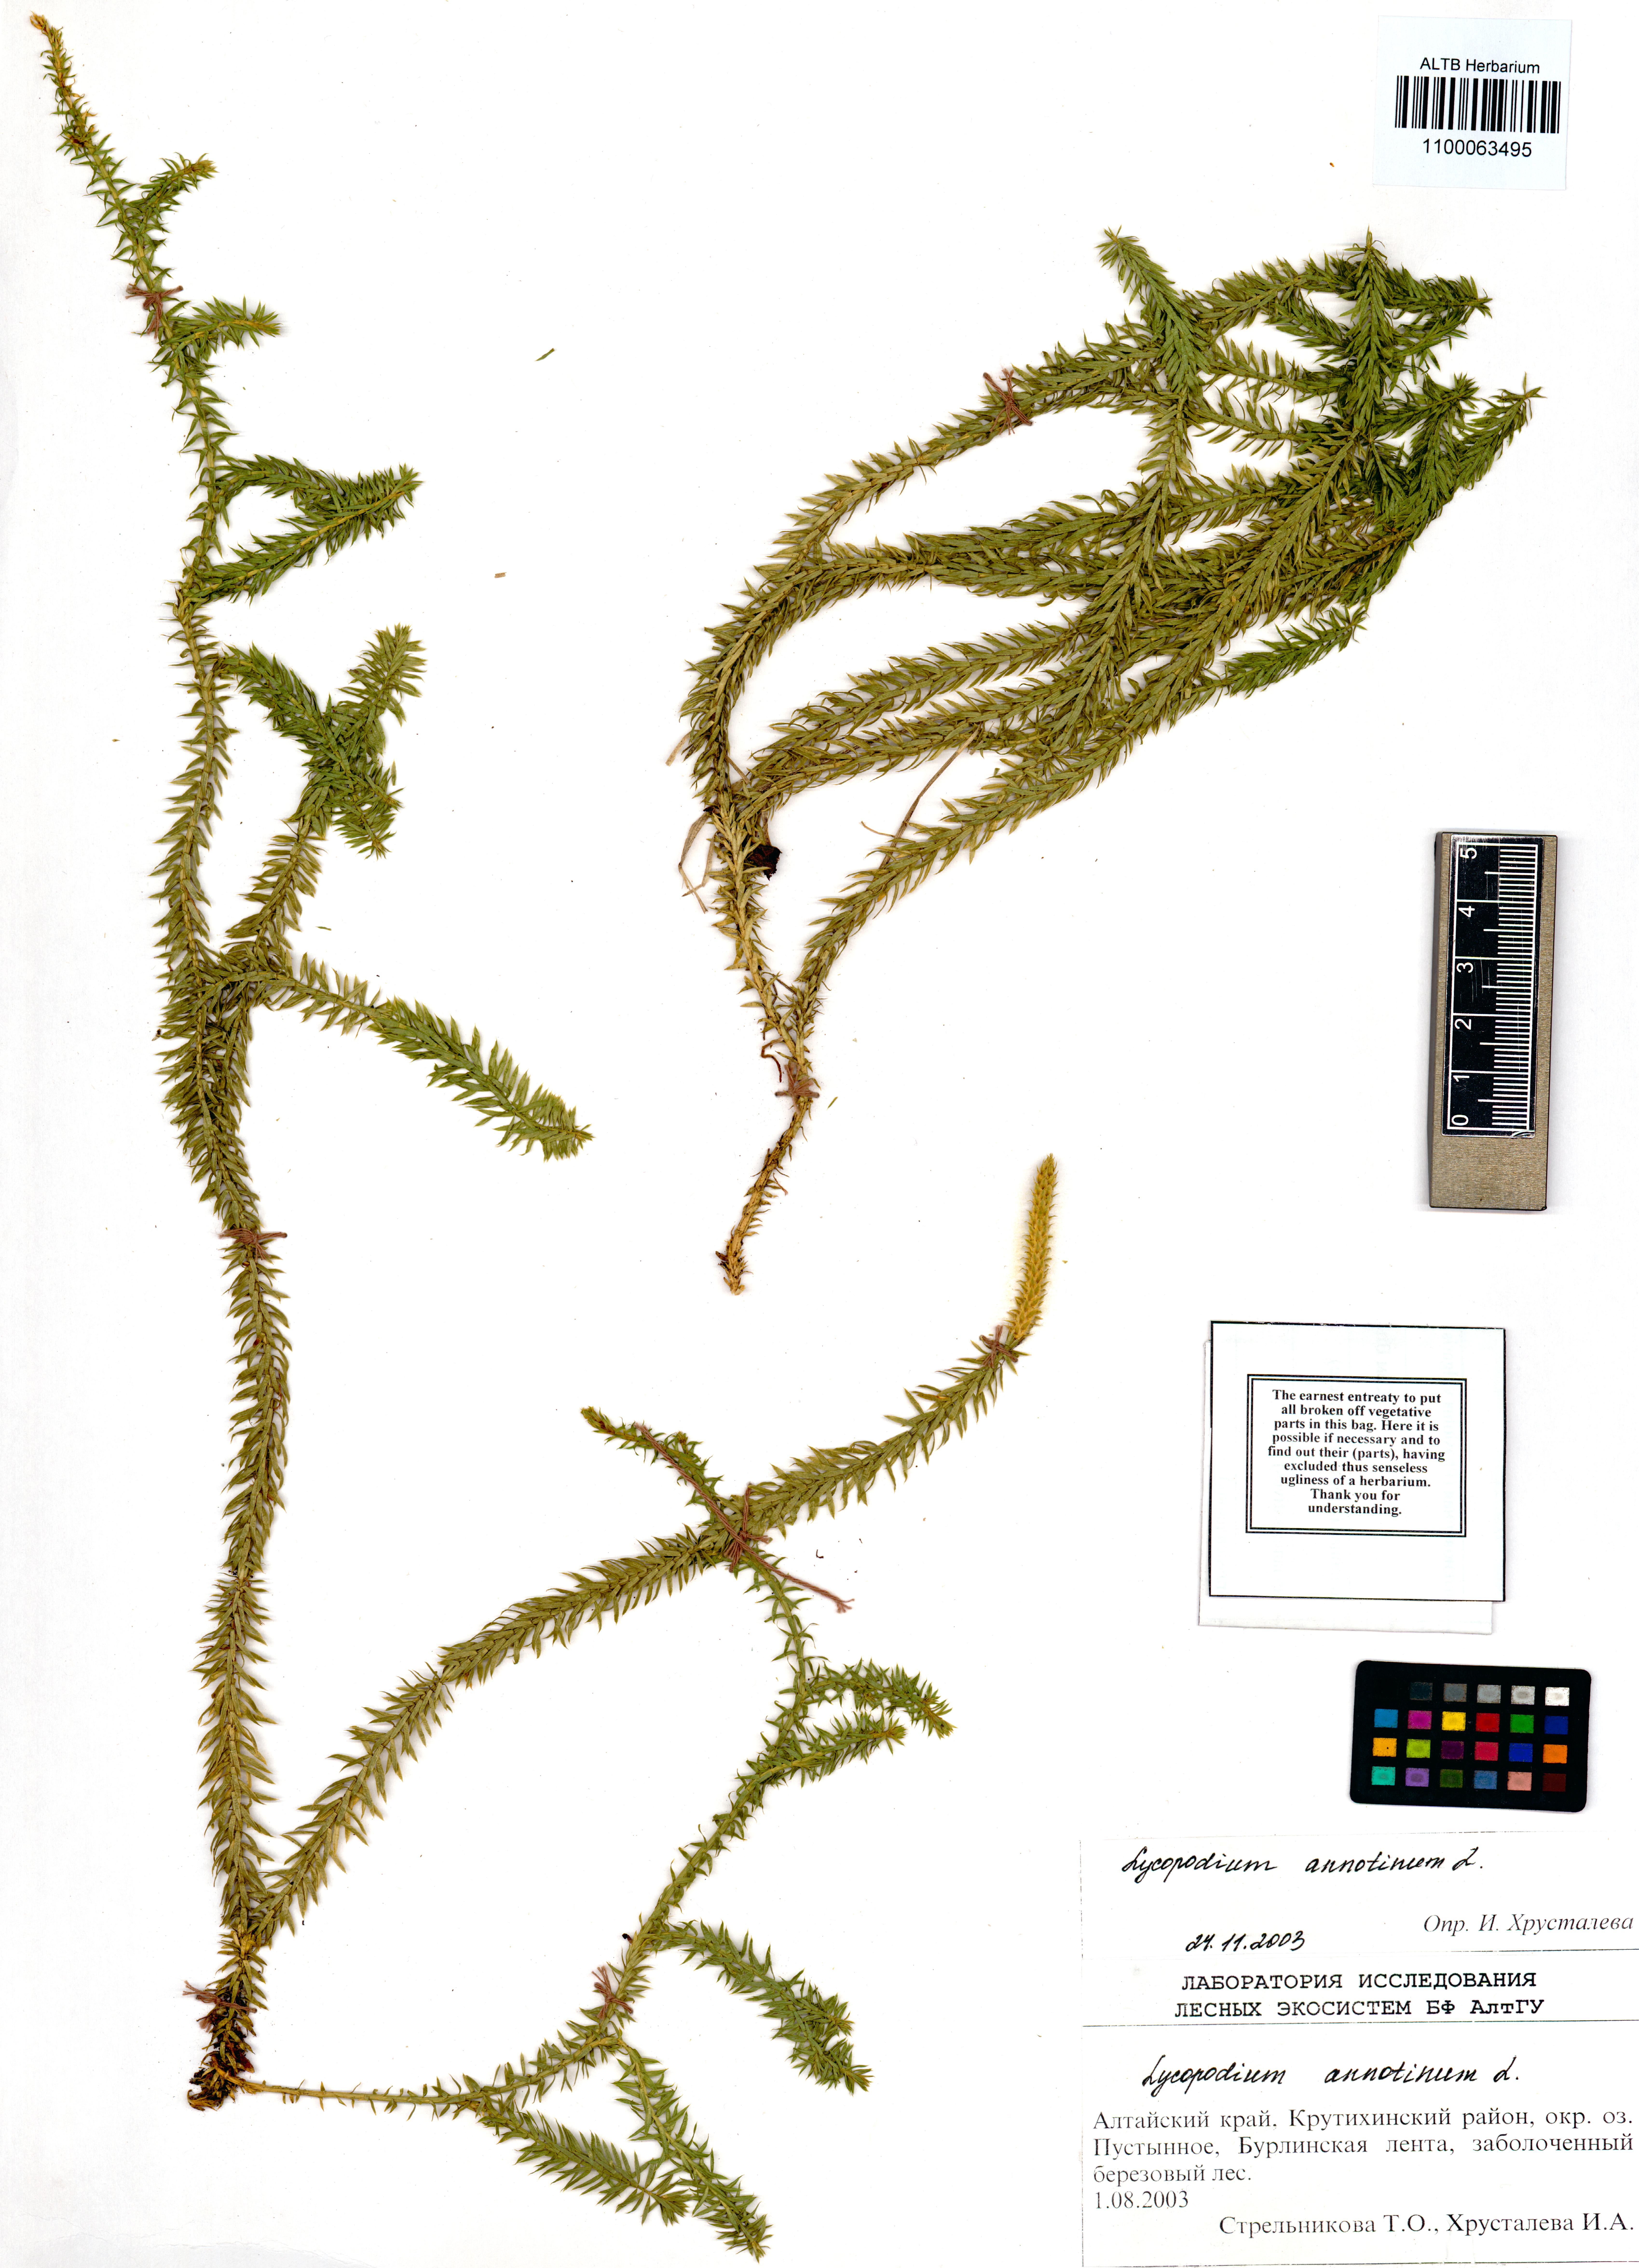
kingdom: Plantae
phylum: Tracheophyta
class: Lycopodiopsida
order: Lycopodiales
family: Lycopodiaceae
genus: Spinulum
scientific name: Spinulum annotinum
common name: Interrupted club-moss
